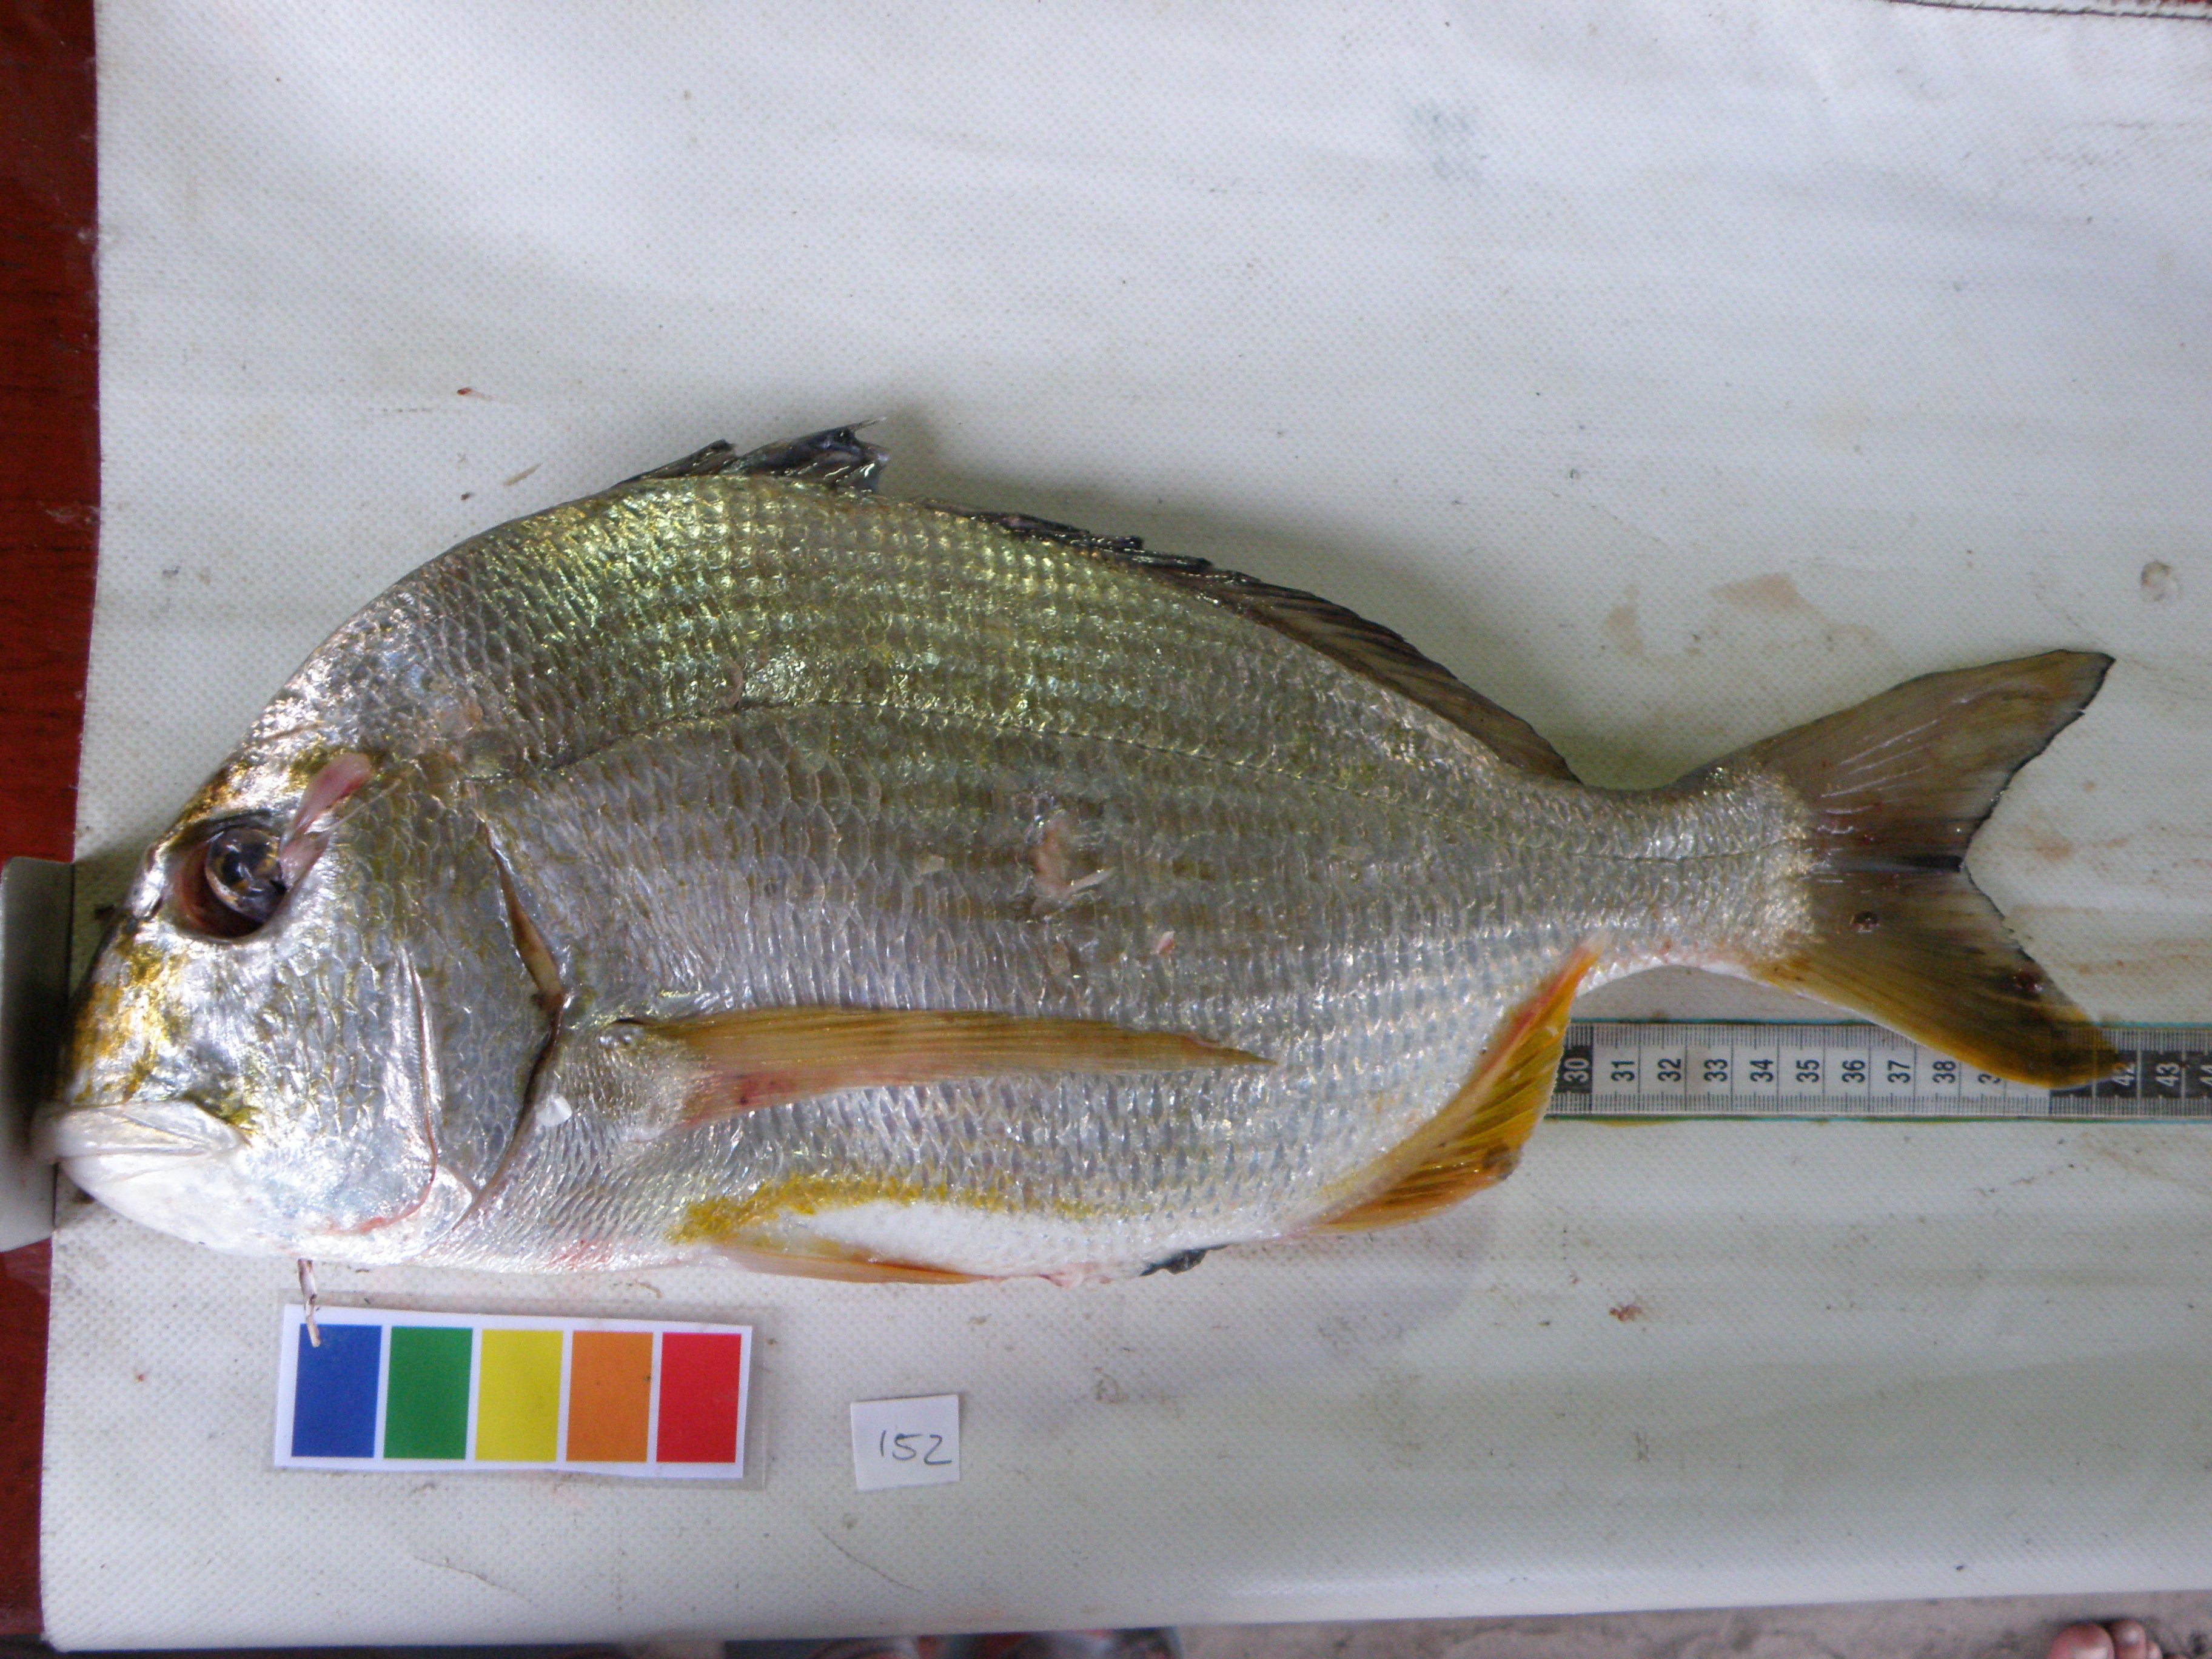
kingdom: Animalia
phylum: Chordata
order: Perciformes
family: Sparidae
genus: Rhabdosargus
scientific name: Rhabdosargus sarba
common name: Goldlined seabream
